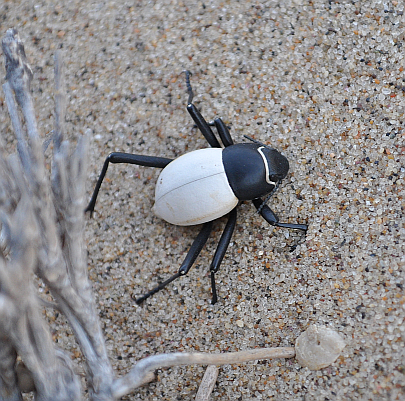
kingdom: Animalia
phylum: Arthropoda
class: Insecta
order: Coleoptera
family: Tenebrionidae
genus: Onymacris
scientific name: Onymacris
